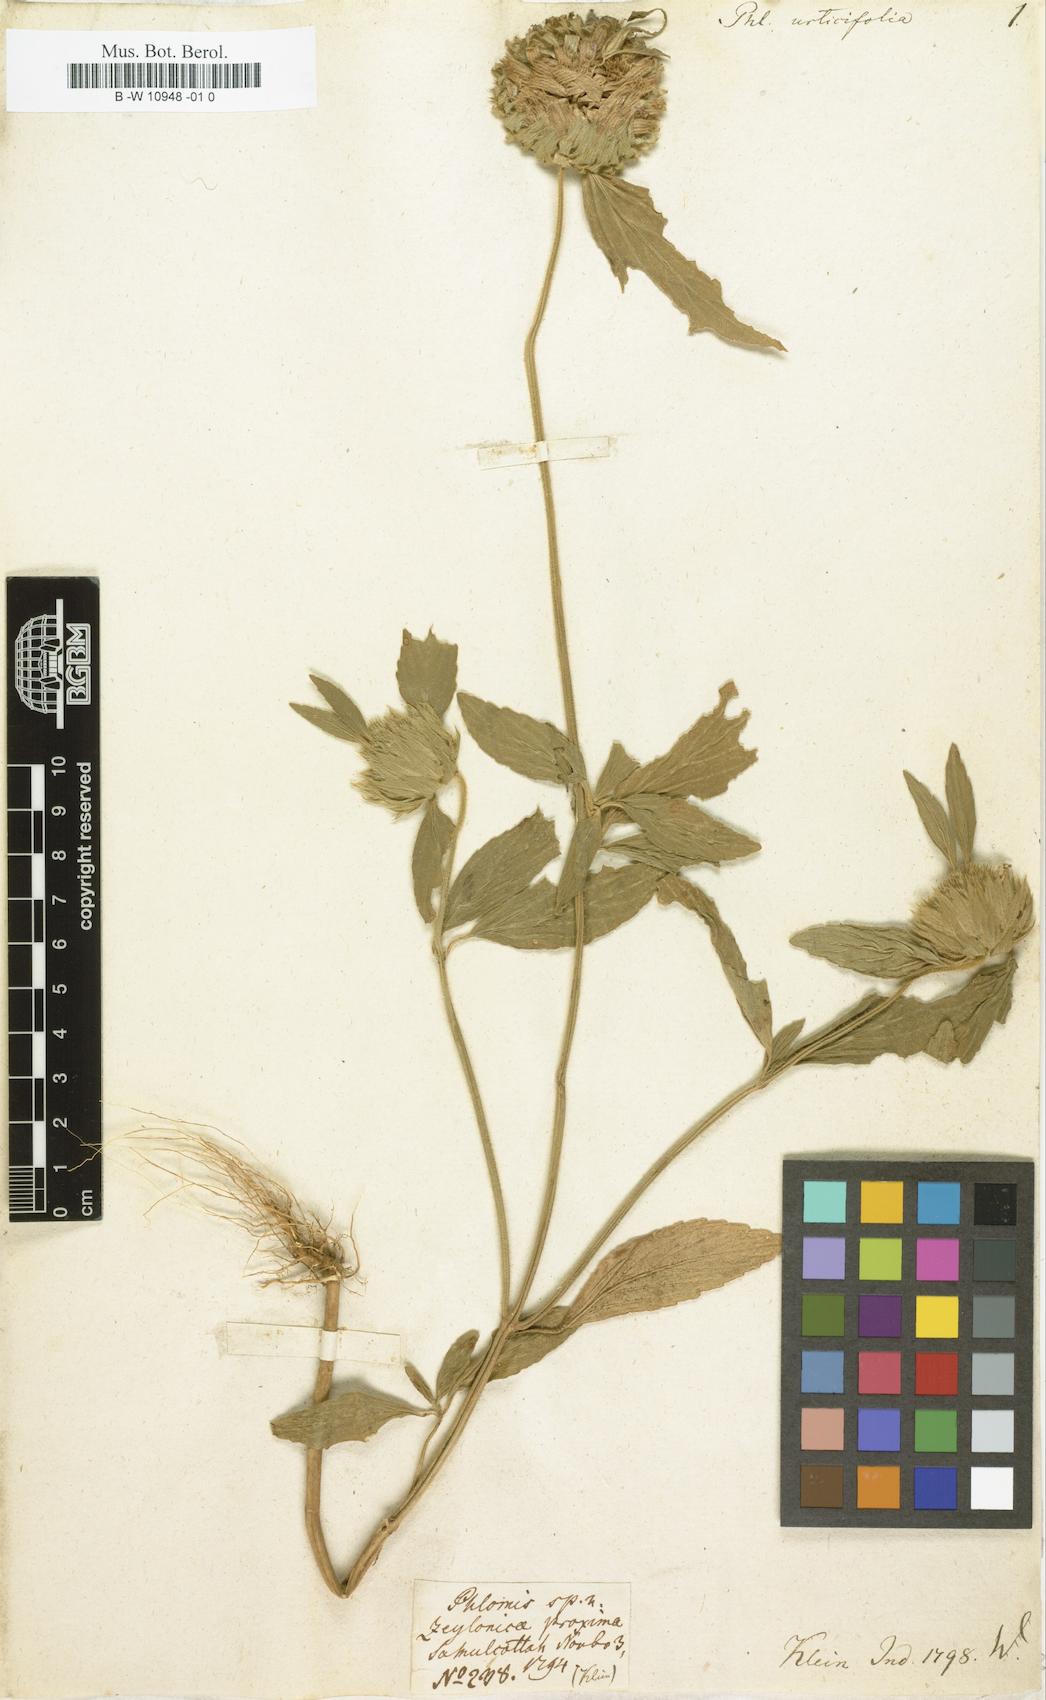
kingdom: Plantae
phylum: Tracheophyta
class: Magnoliopsida
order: Lamiales
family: Lamiaceae
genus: Leucas
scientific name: Leucas urticifolia
